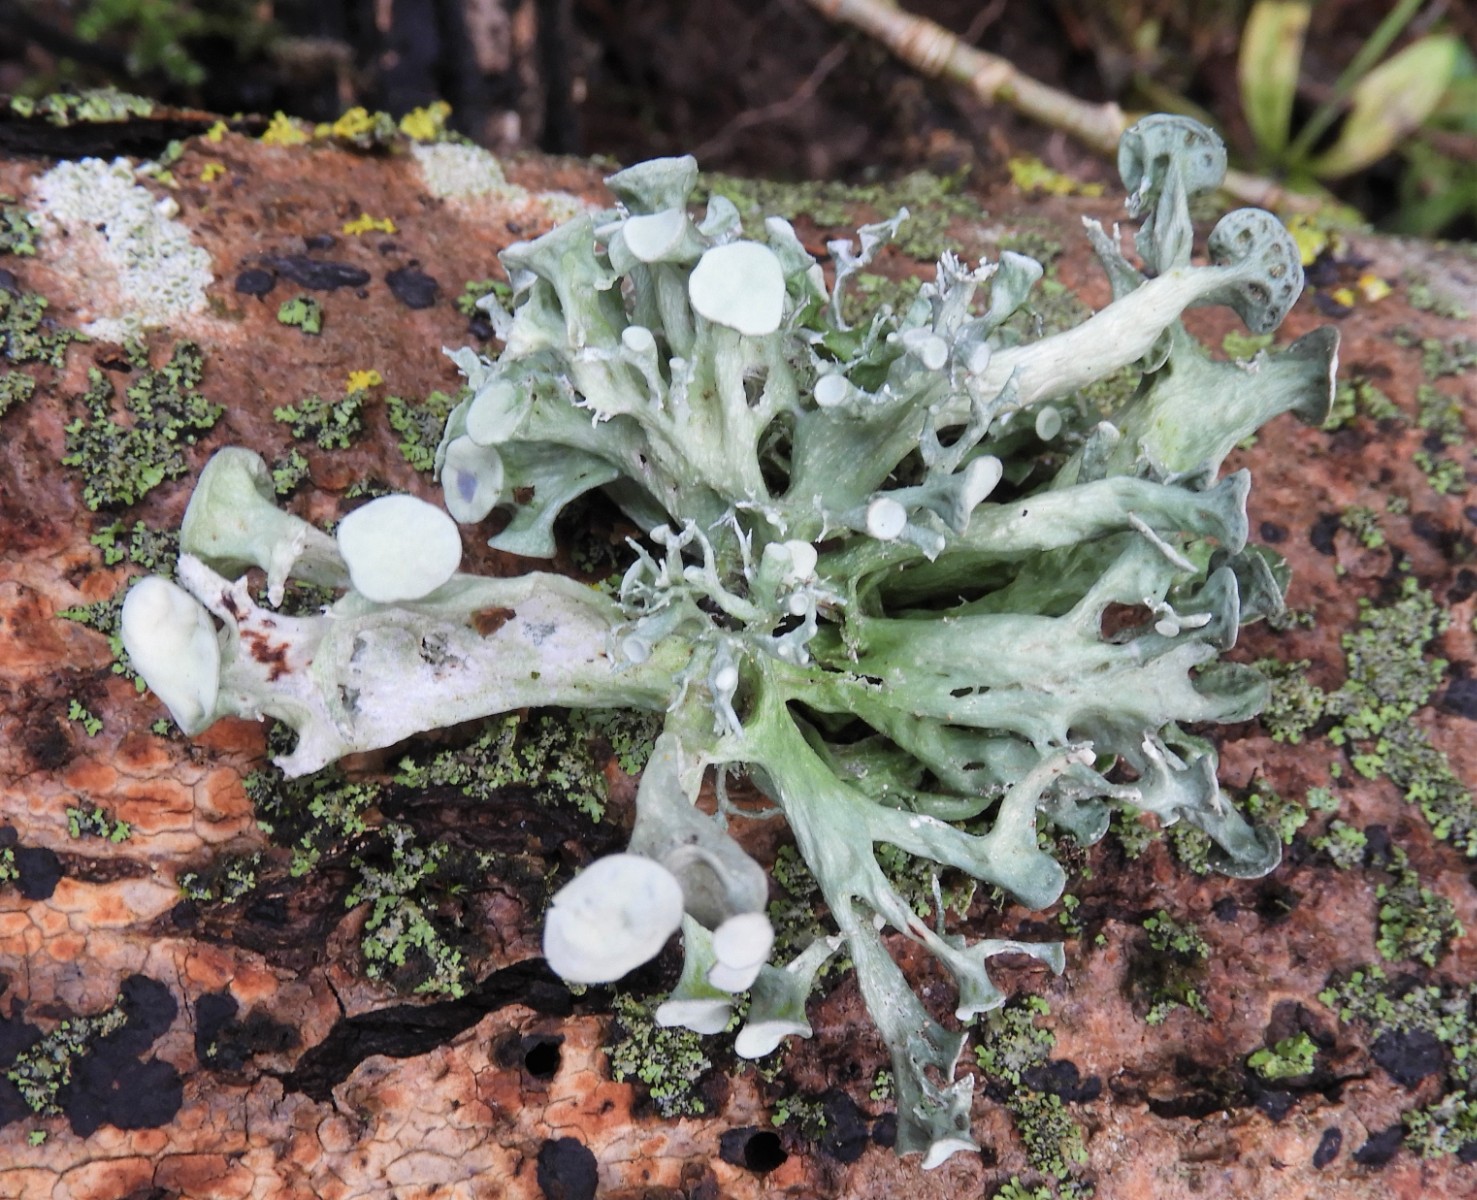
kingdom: Fungi
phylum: Ascomycota
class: Lecanoromycetes
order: Lecanorales
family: Ramalinaceae
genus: Ramalina
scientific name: Ramalina fastigiata
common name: tue-grenlav
